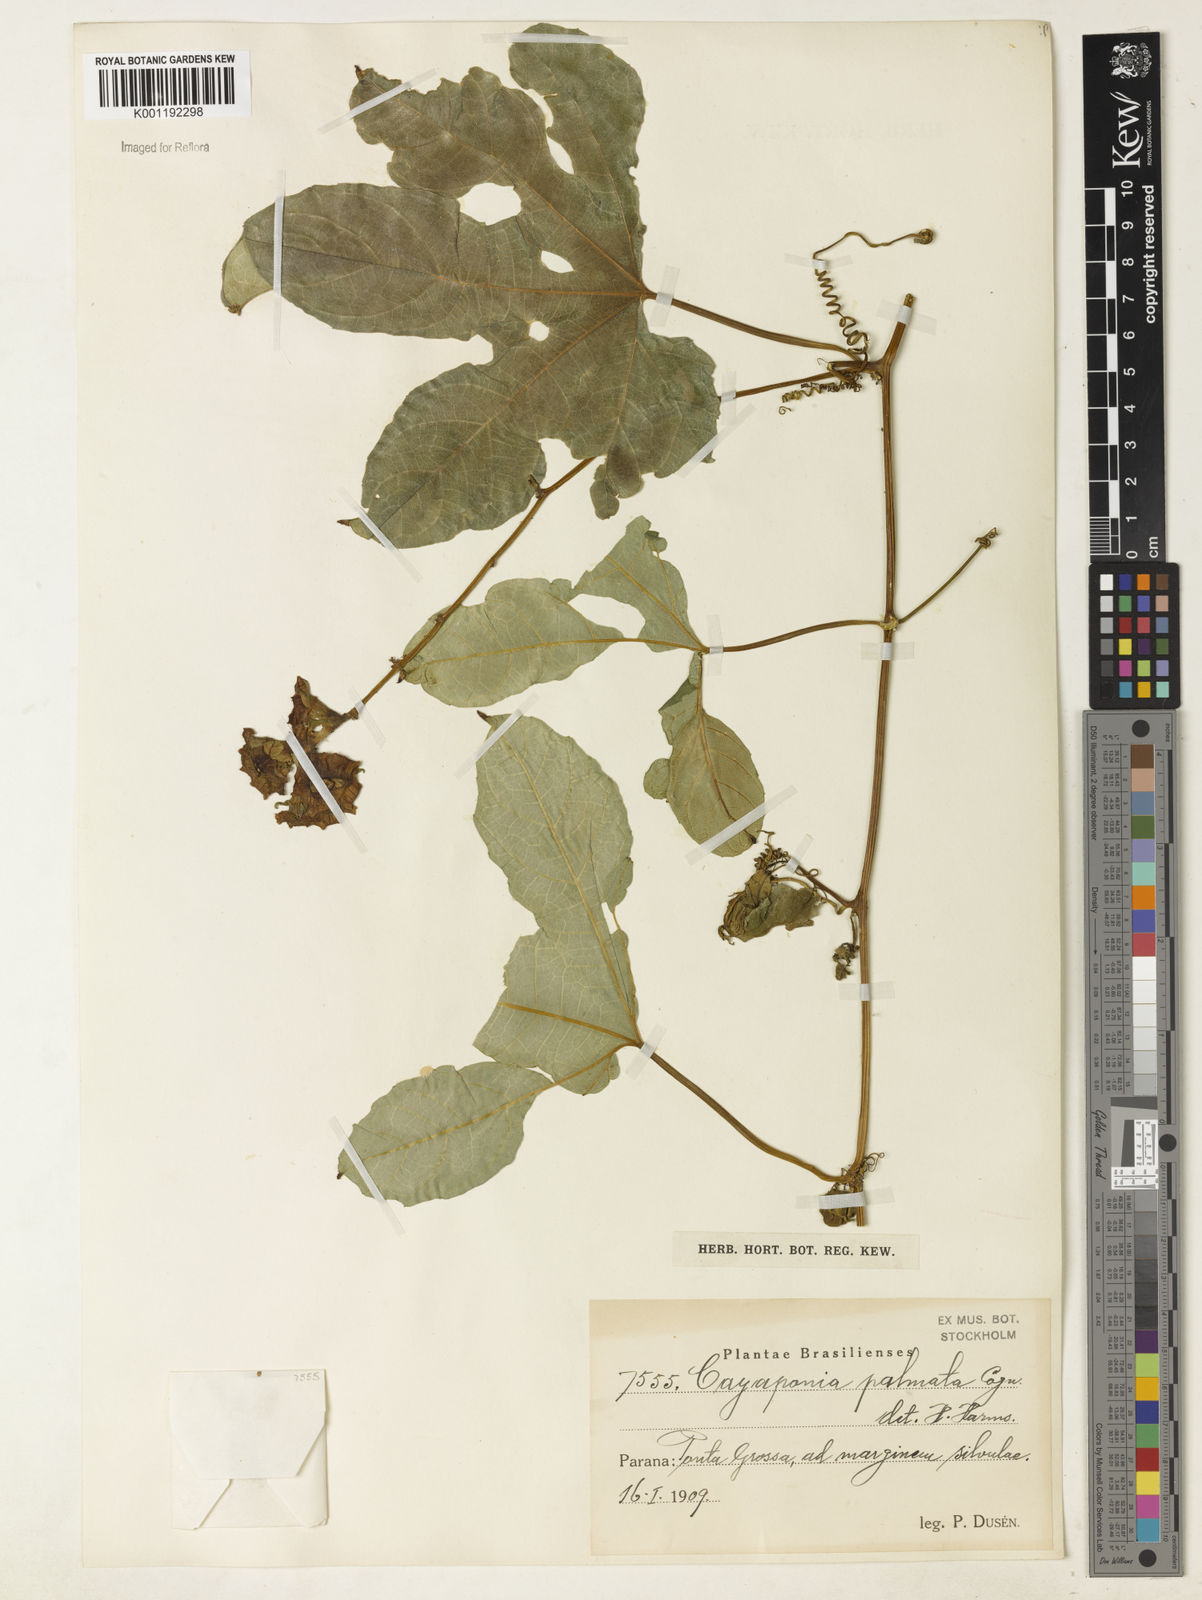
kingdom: Plantae
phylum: Tracheophyta
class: Magnoliopsida
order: Cucurbitales
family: Cucurbitaceae
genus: Cayaponia
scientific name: Cayaponia palmata
